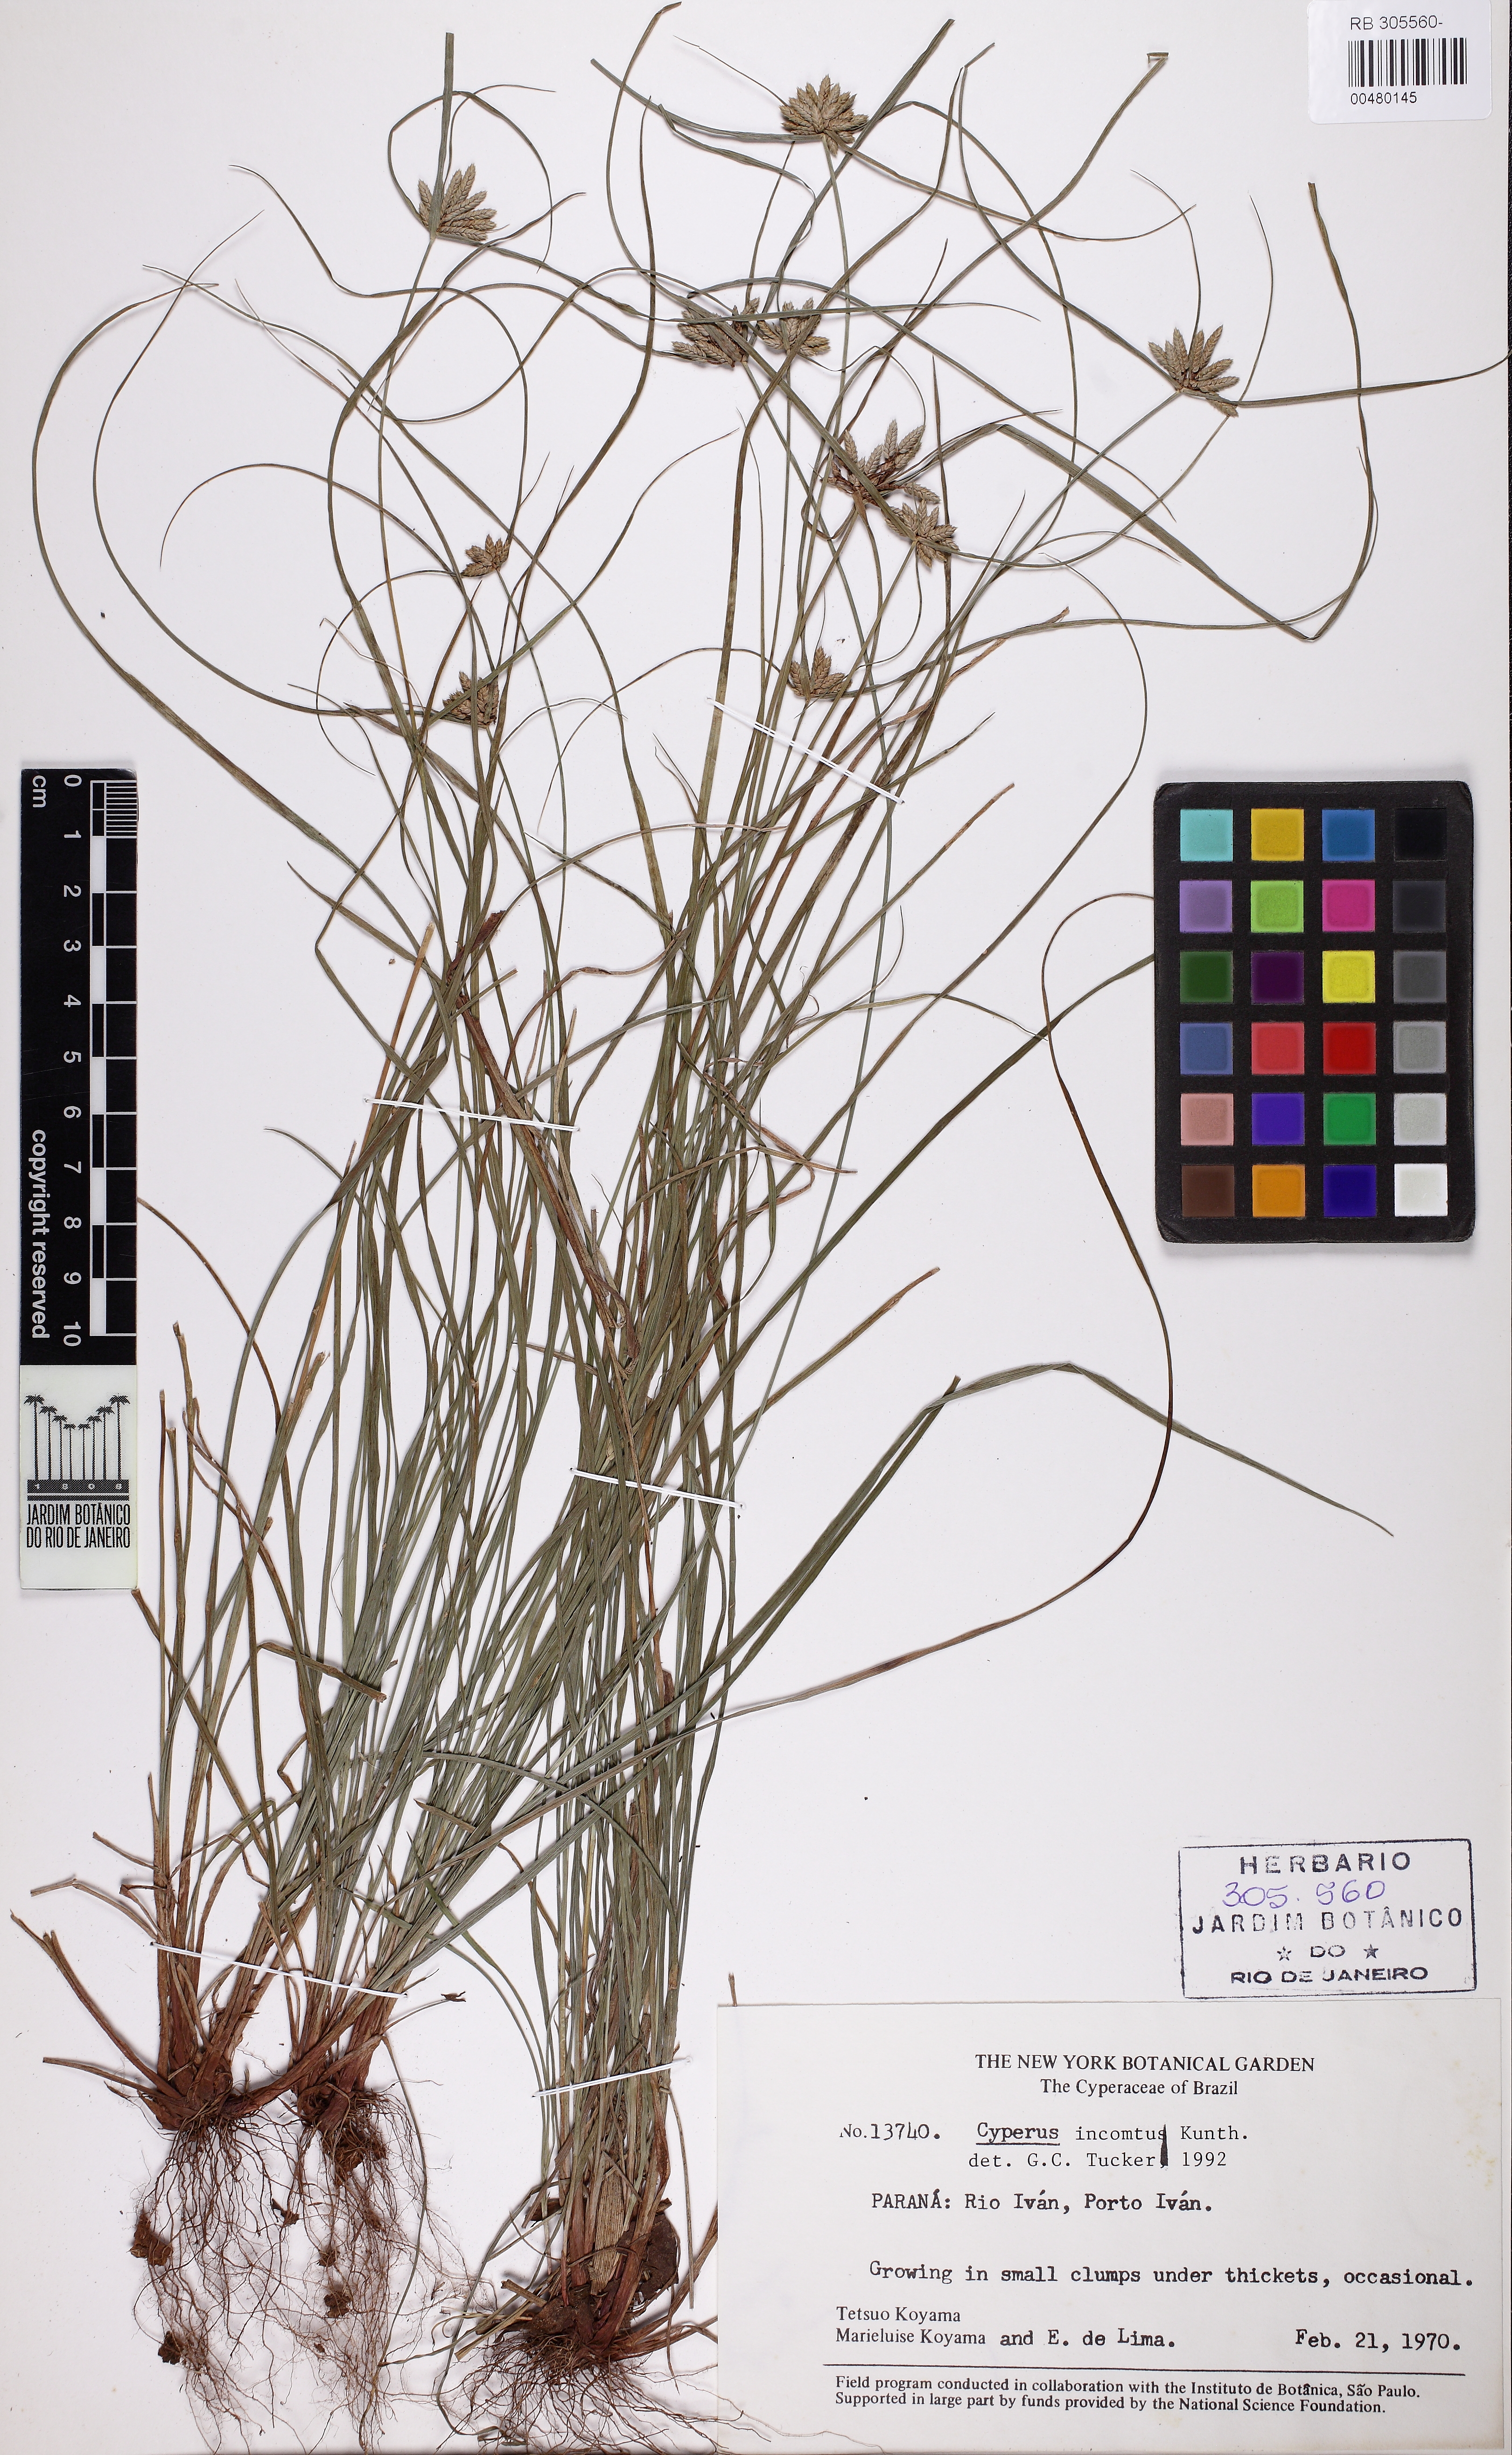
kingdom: Plantae
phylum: Tracheophyta
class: Liliopsida
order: Poales
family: Cyperaceae
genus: Cyperus
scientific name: Cyperus incomtus
